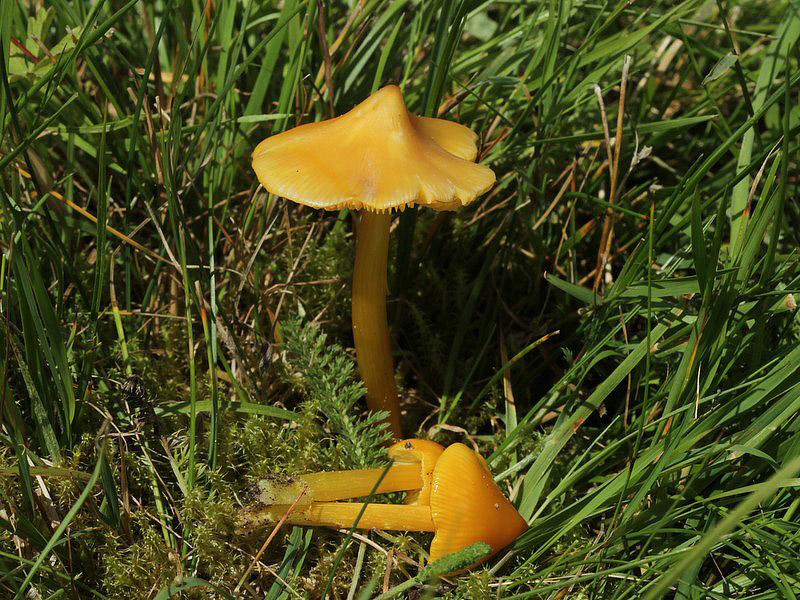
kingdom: Fungi
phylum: Basidiomycota
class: Agaricomycetes
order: Agaricales
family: Hygrophoraceae
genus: Hygrocybe
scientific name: Hygrocybe acutoconica
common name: spidspuklet vokshat
